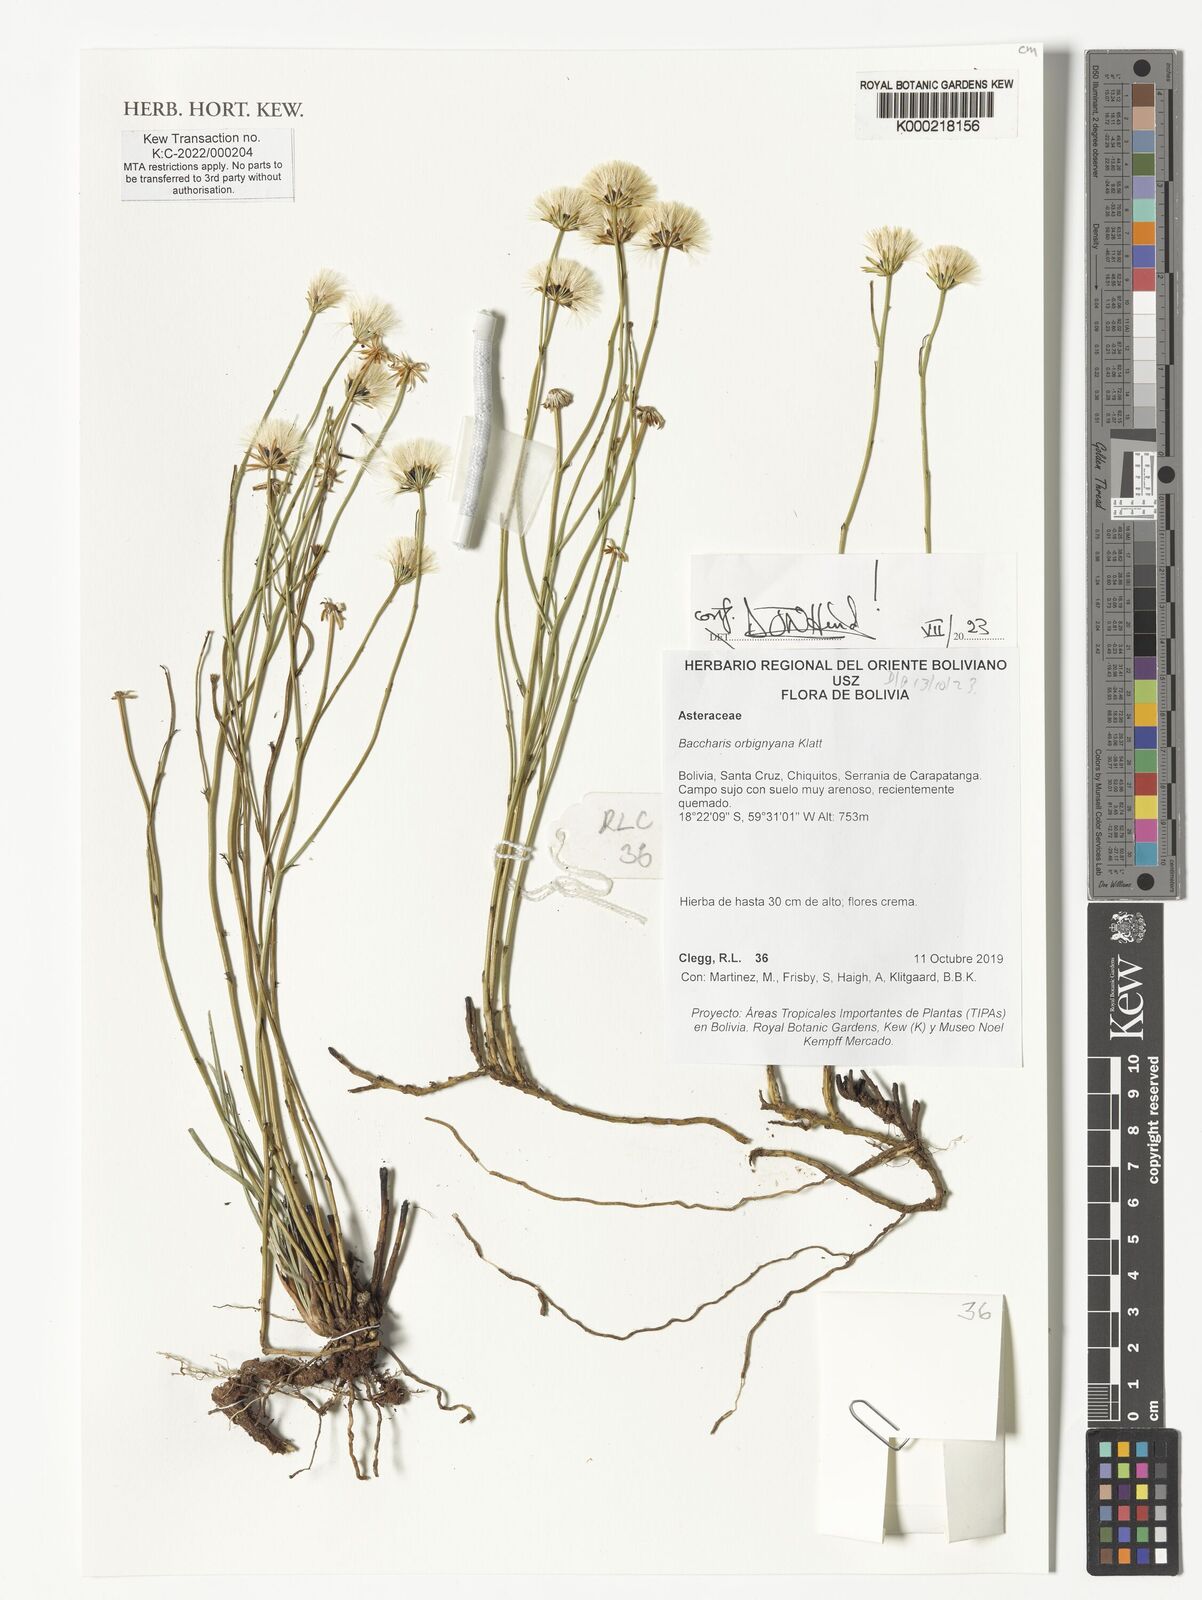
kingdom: Plantae
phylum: Tracheophyta
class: Magnoliopsida
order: Asterales
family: Asteraceae
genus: Baccharis
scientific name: Baccharis orbignyana
